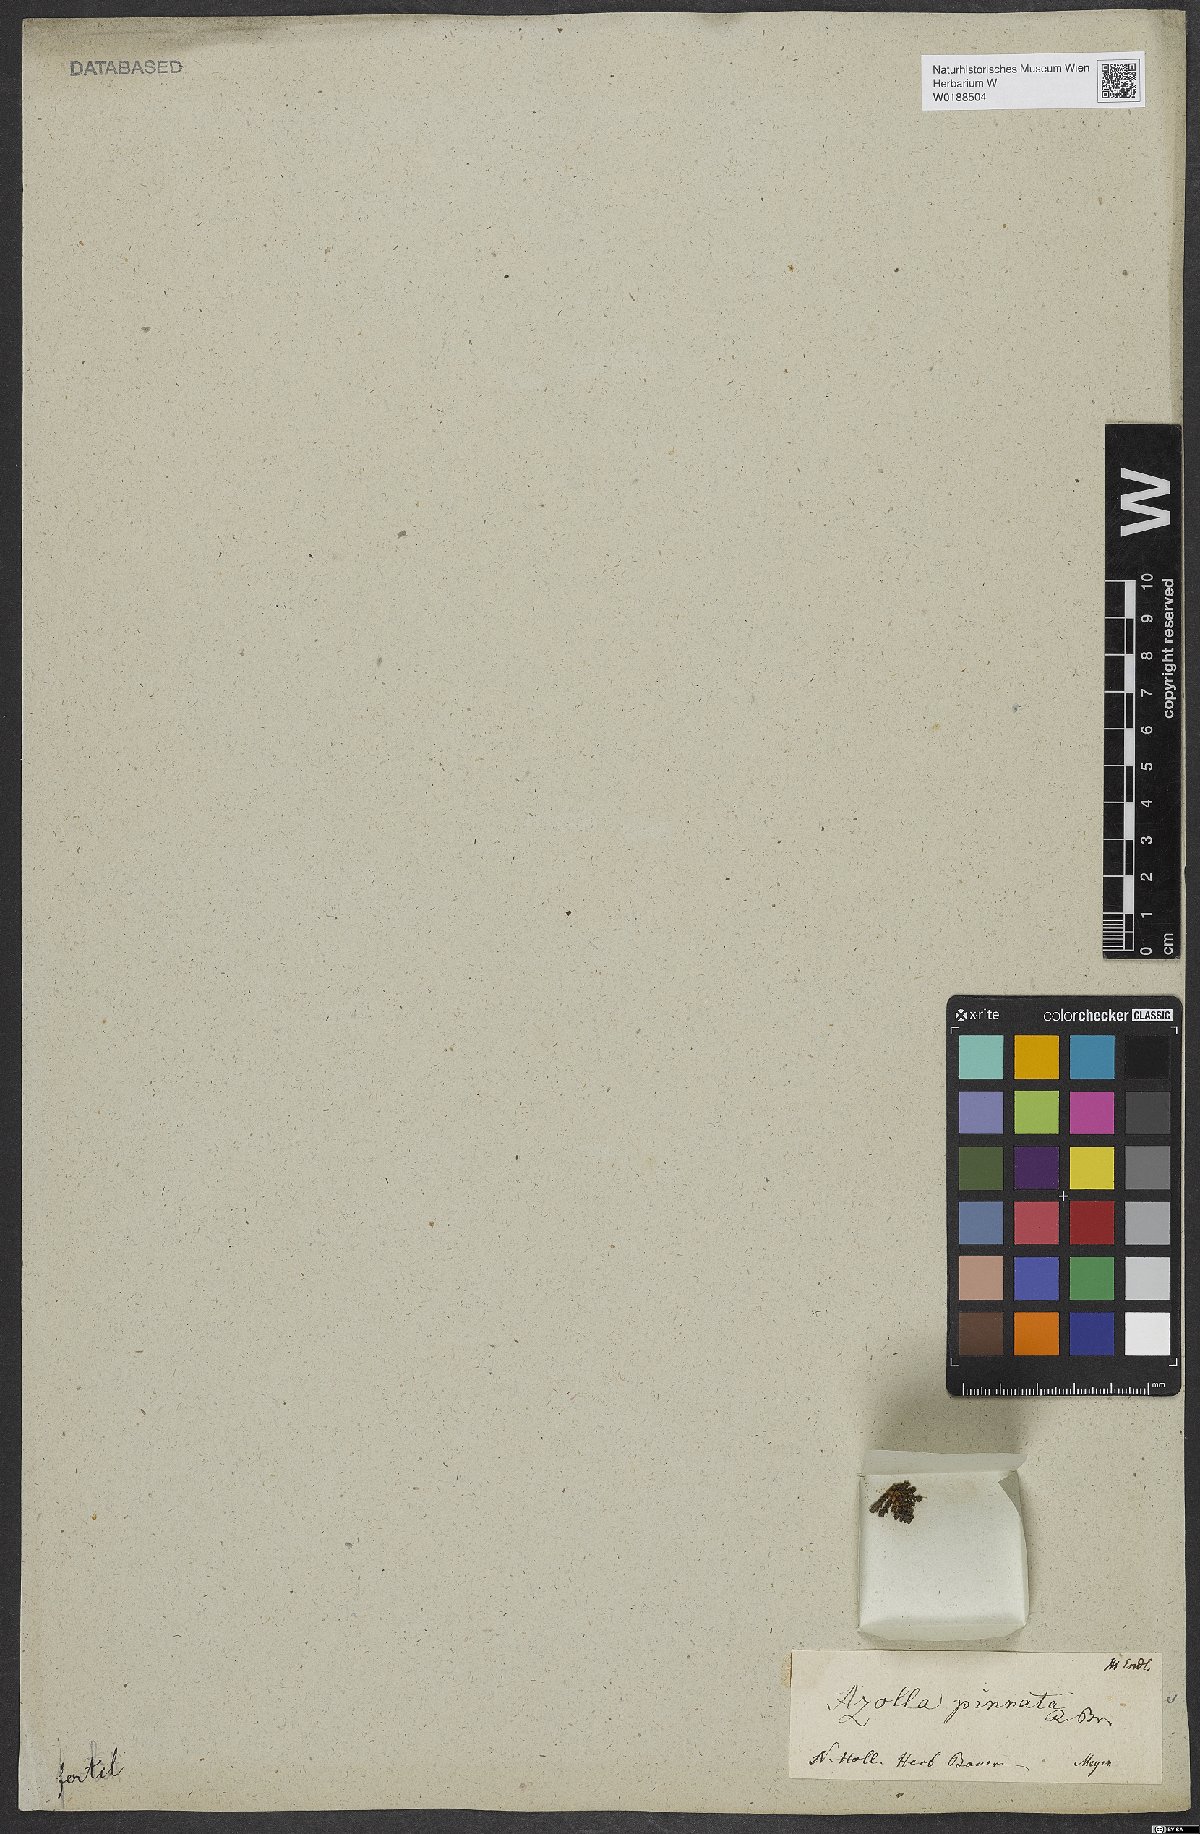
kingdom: Plantae
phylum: Tracheophyta
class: Polypodiopsida
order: Salviniales
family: Salviniaceae
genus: Azolla
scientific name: Azolla pinnata
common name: Ferny azolla
